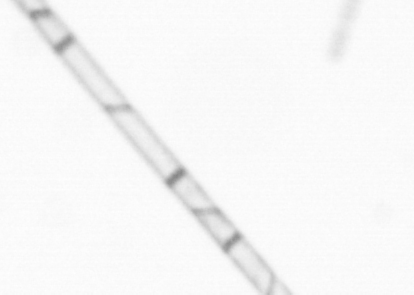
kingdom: Chromista
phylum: Ochrophyta
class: Bacillariophyceae
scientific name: Bacillariophyceae
